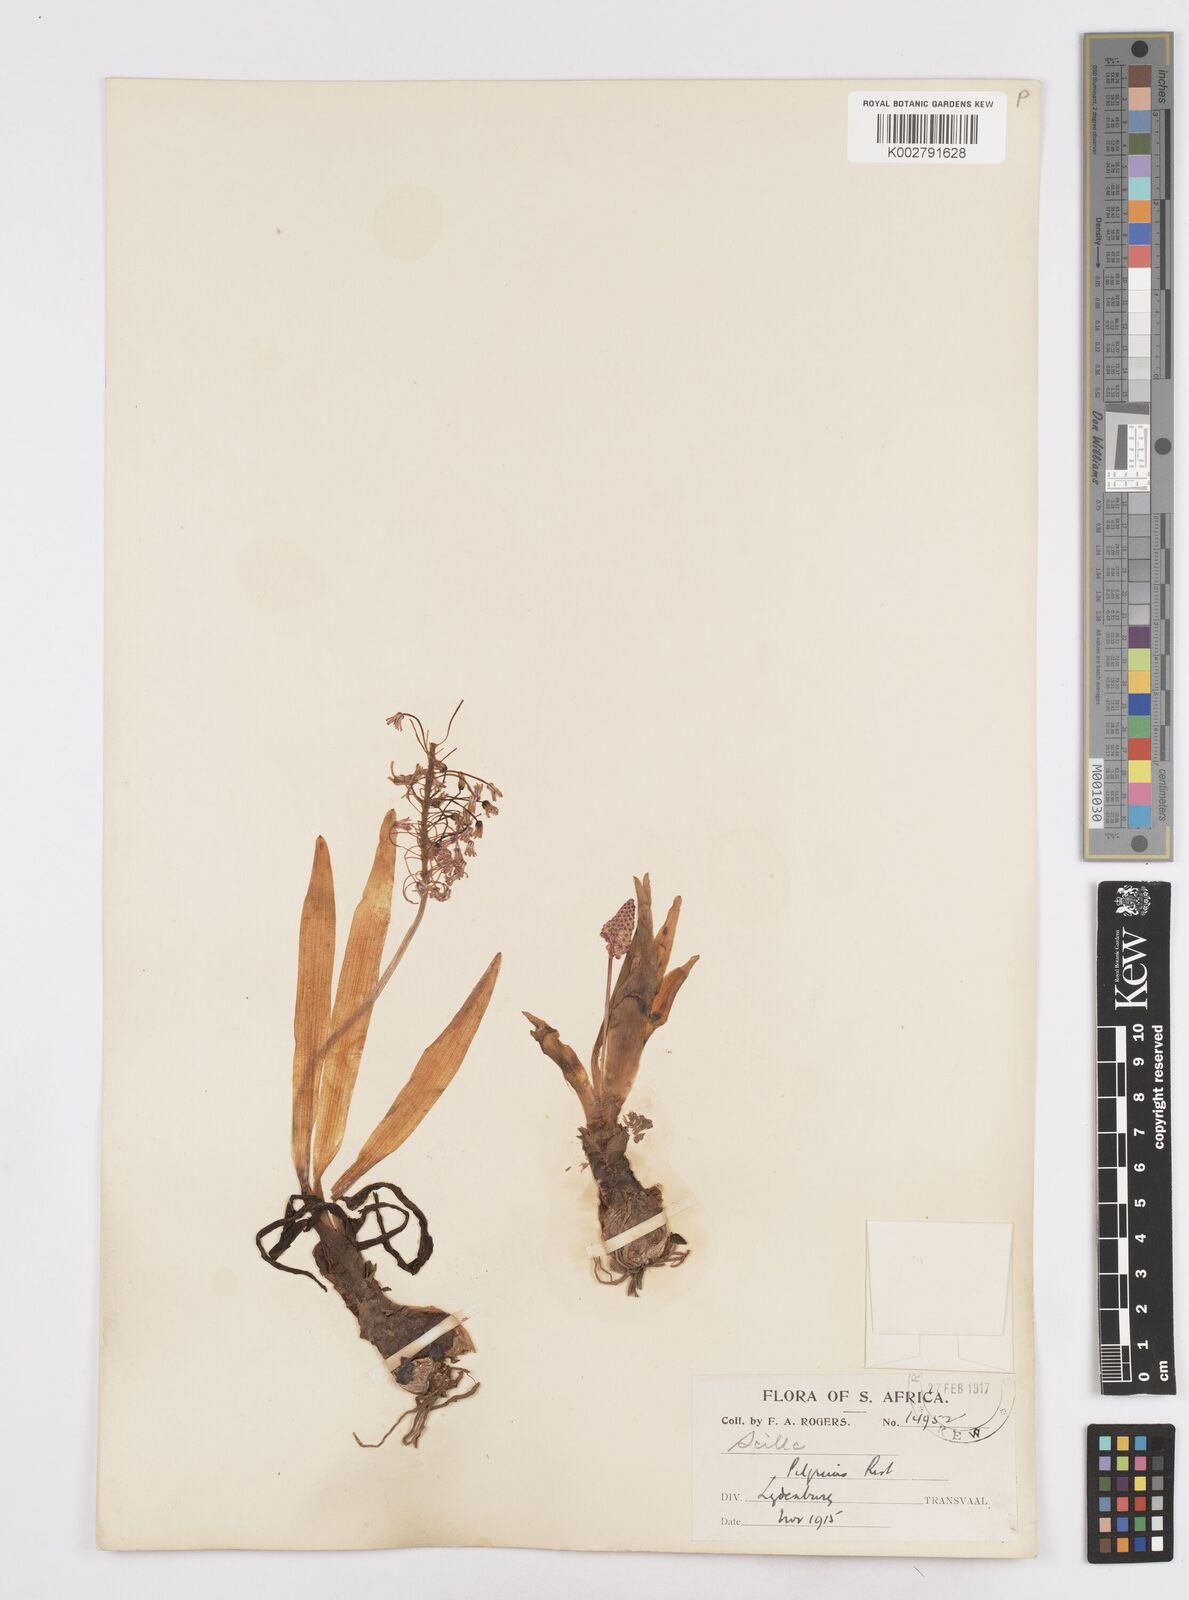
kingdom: Plantae
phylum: Tracheophyta
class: Liliopsida
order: Asparagales
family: Asparagaceae
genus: Scilla
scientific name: Scilla
